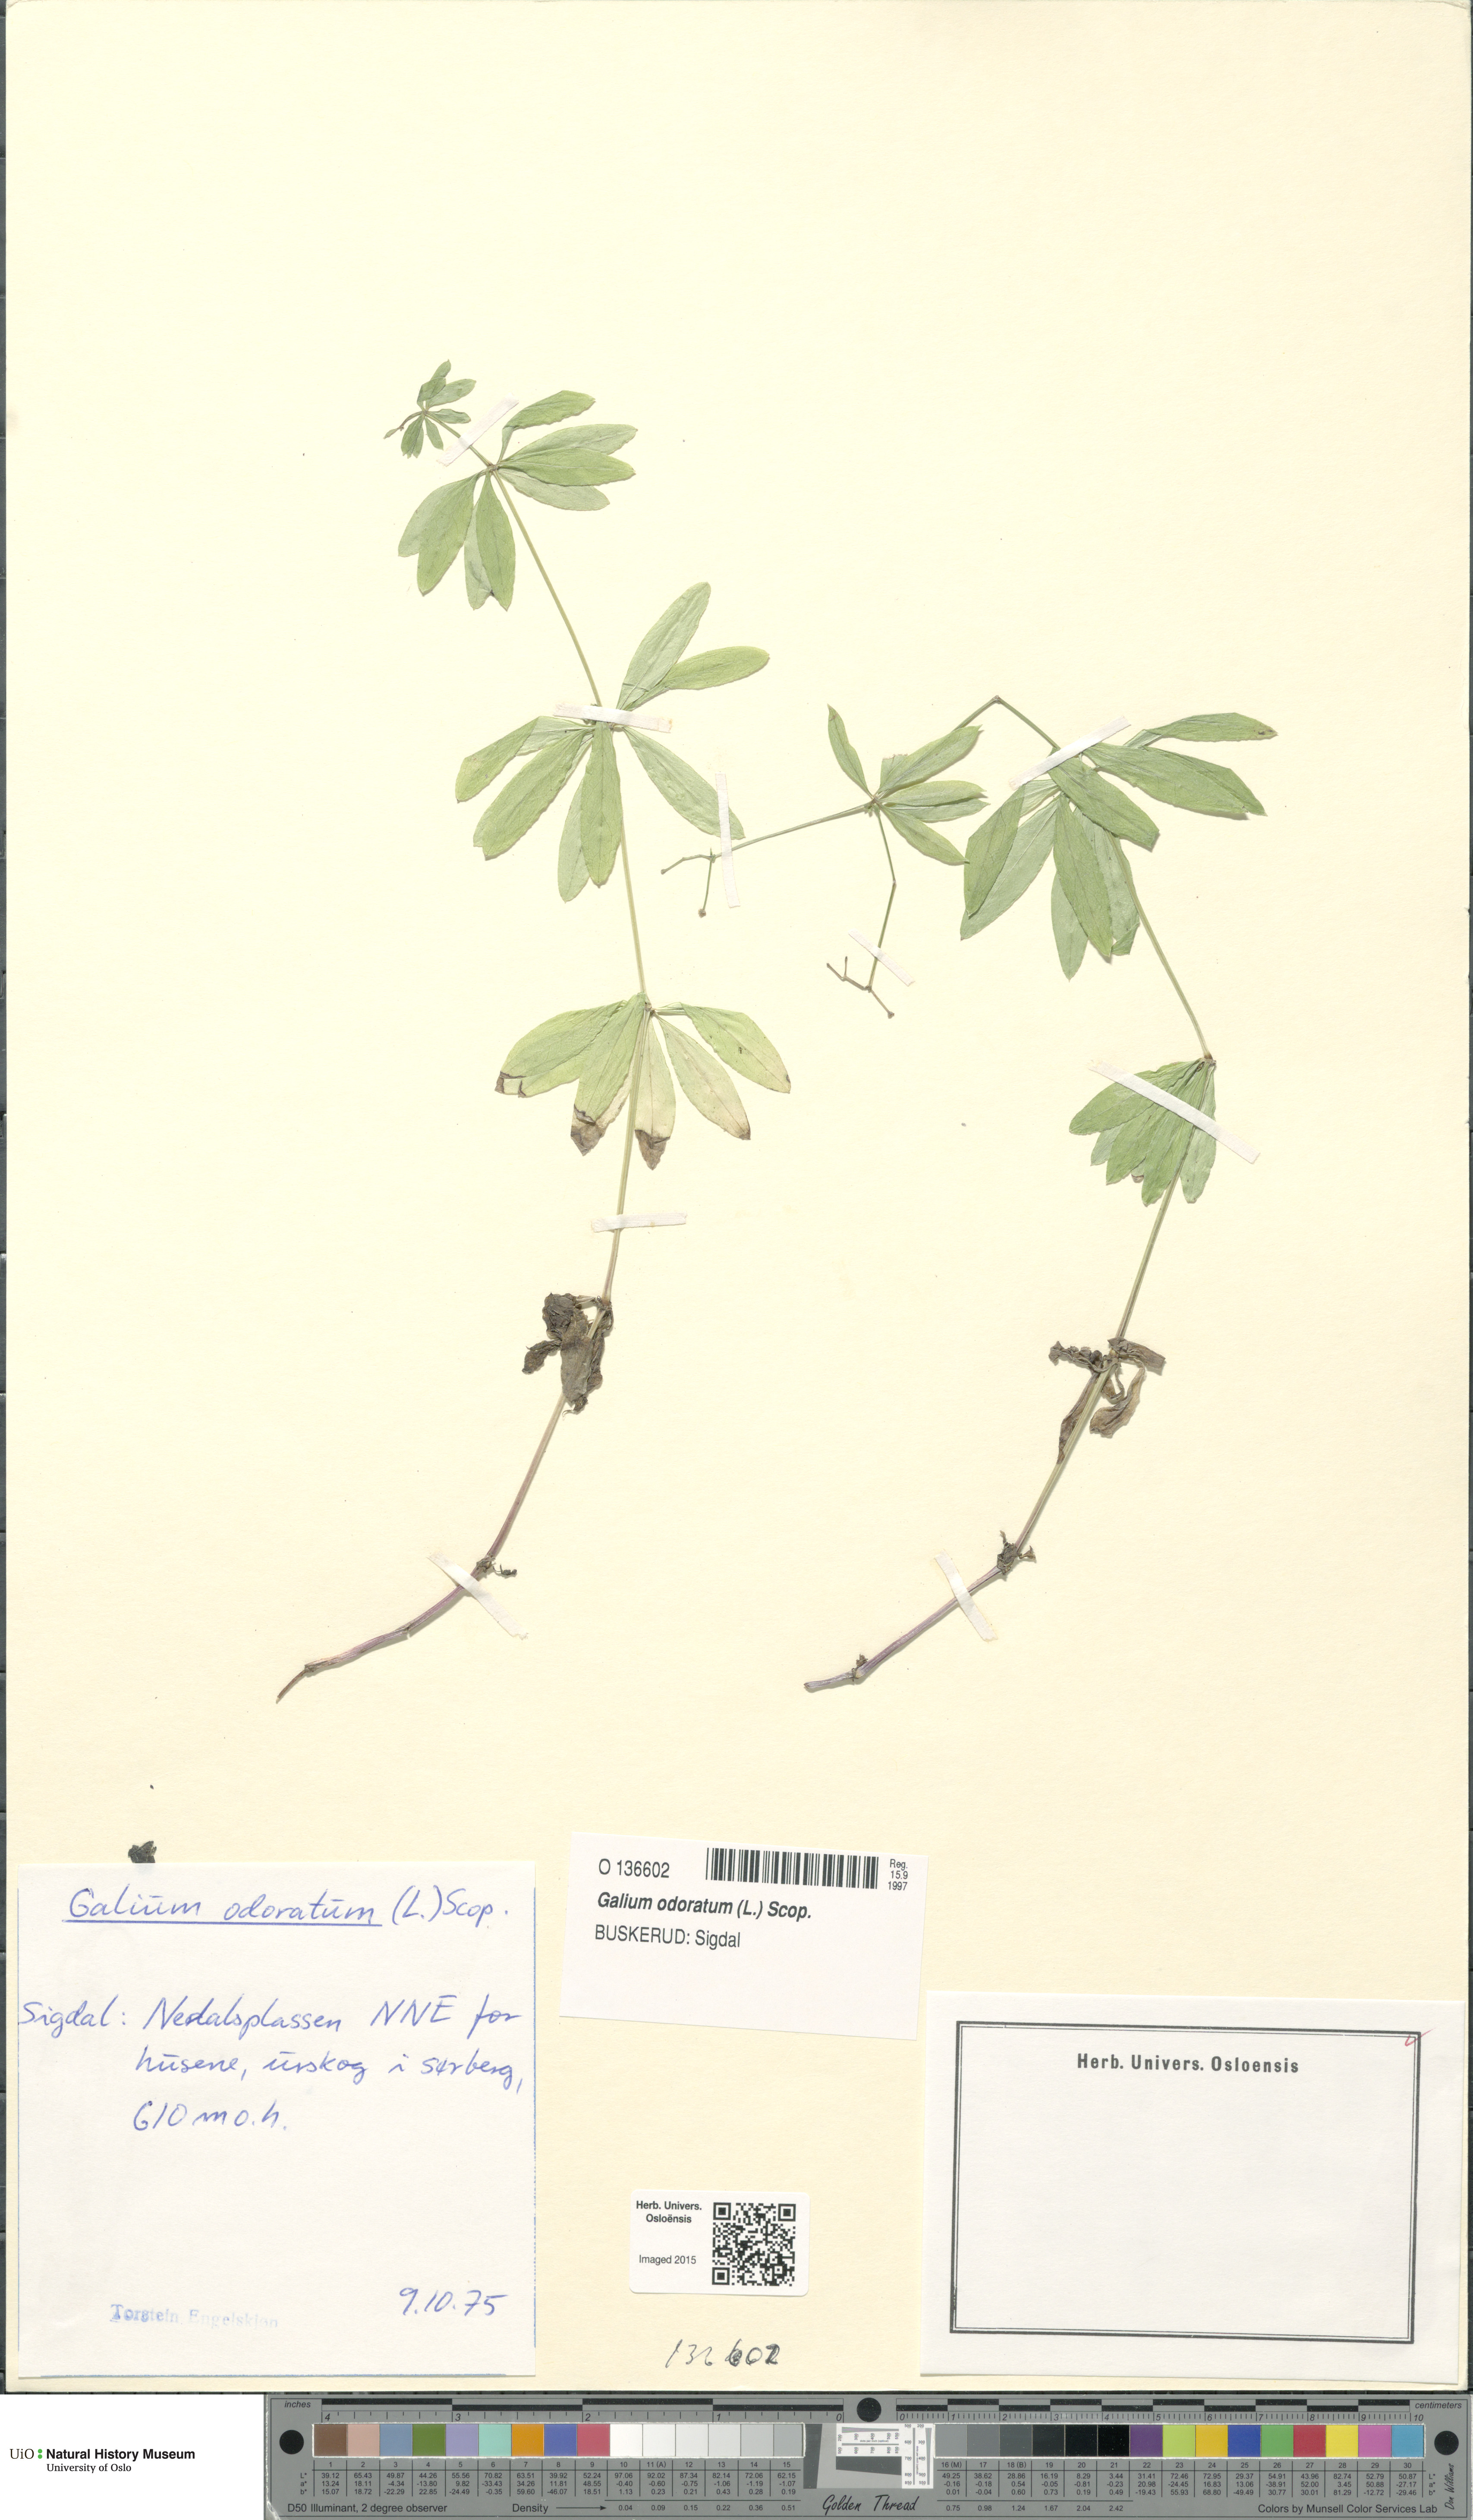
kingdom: Plantae
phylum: Tracheophyta
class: Magnoliopsida
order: Gentianales
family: Rubiaceae
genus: Galium
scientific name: Galium odoratum
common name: Sweet woodruff
